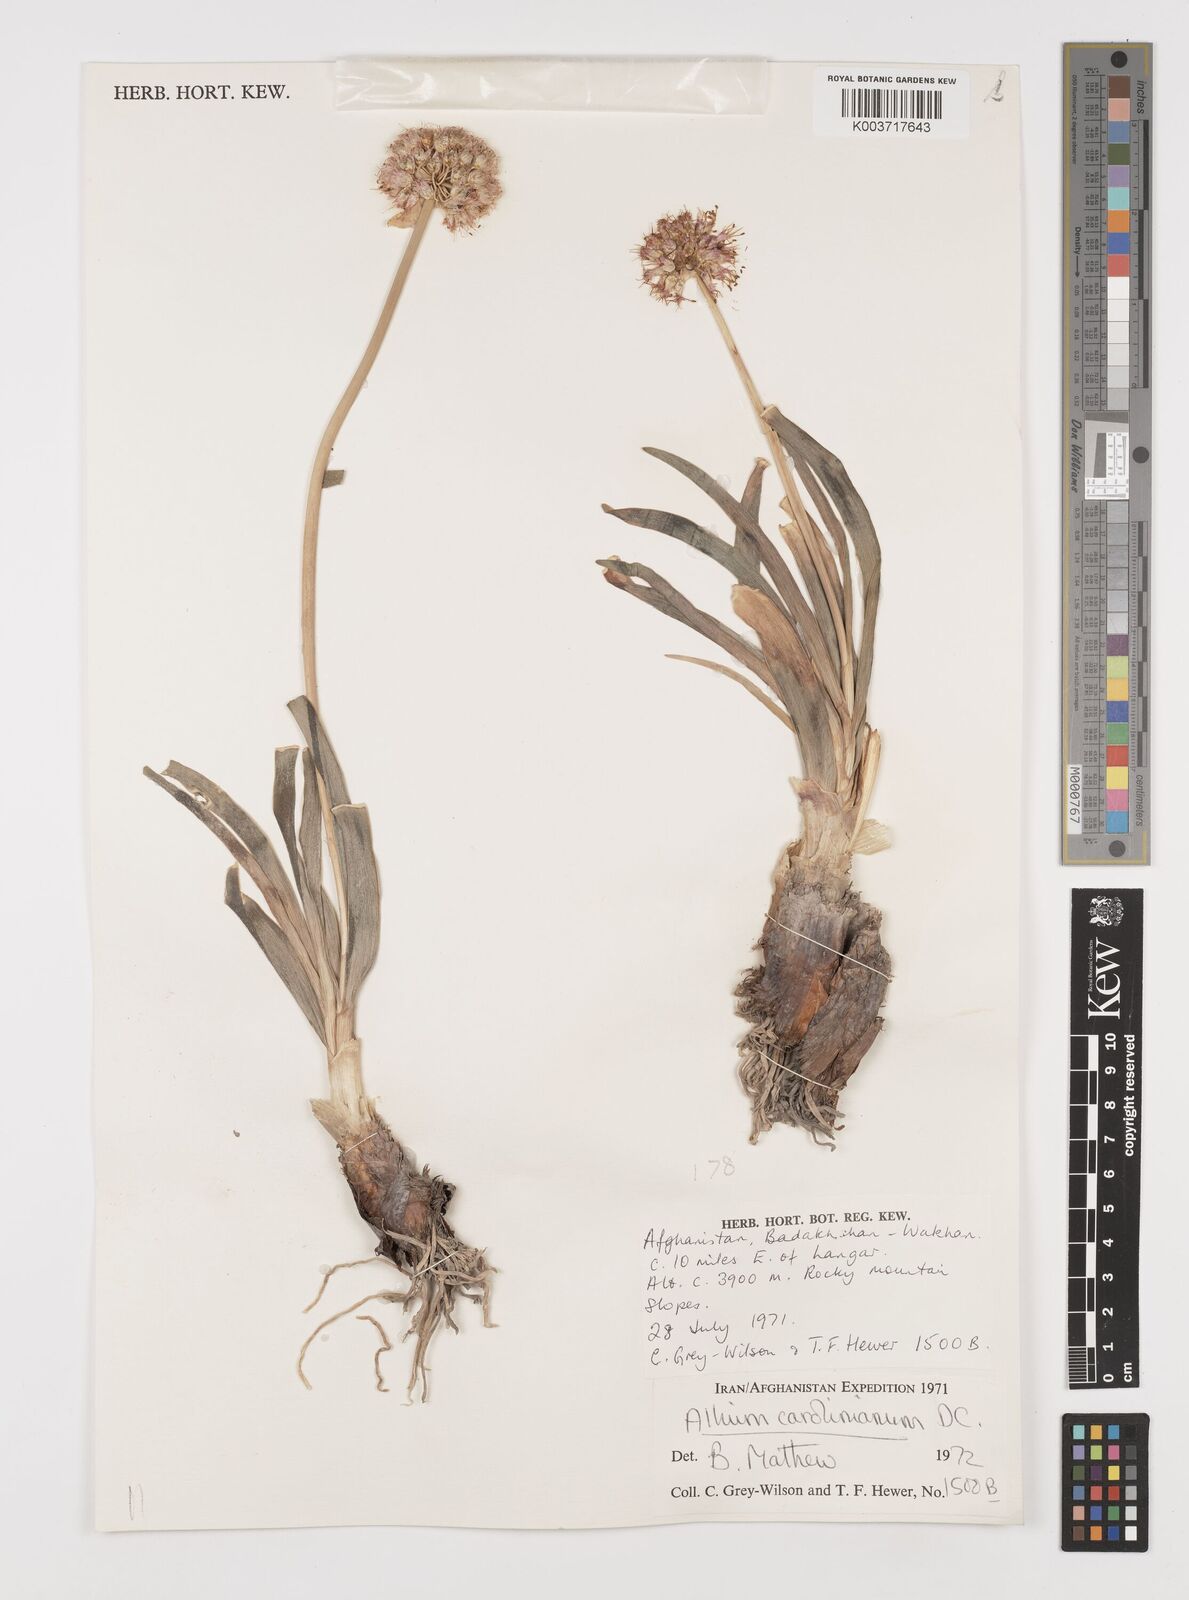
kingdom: Plantae
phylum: Tracheophyta
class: Liliopsida
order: Asparagales
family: Amaryllidaceae
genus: Allium
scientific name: Allium carolinianum
